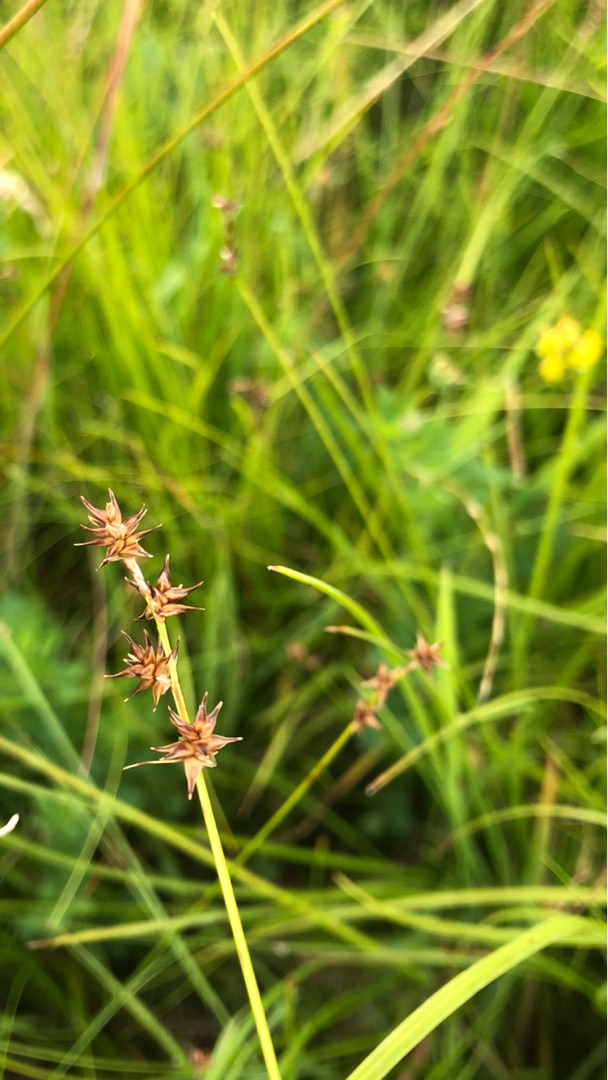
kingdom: Plantae
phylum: Tracheophyta
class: Liliopsida
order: Poales
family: Cyperaceae
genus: Carex
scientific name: Carex echinata
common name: Stjerne-star
